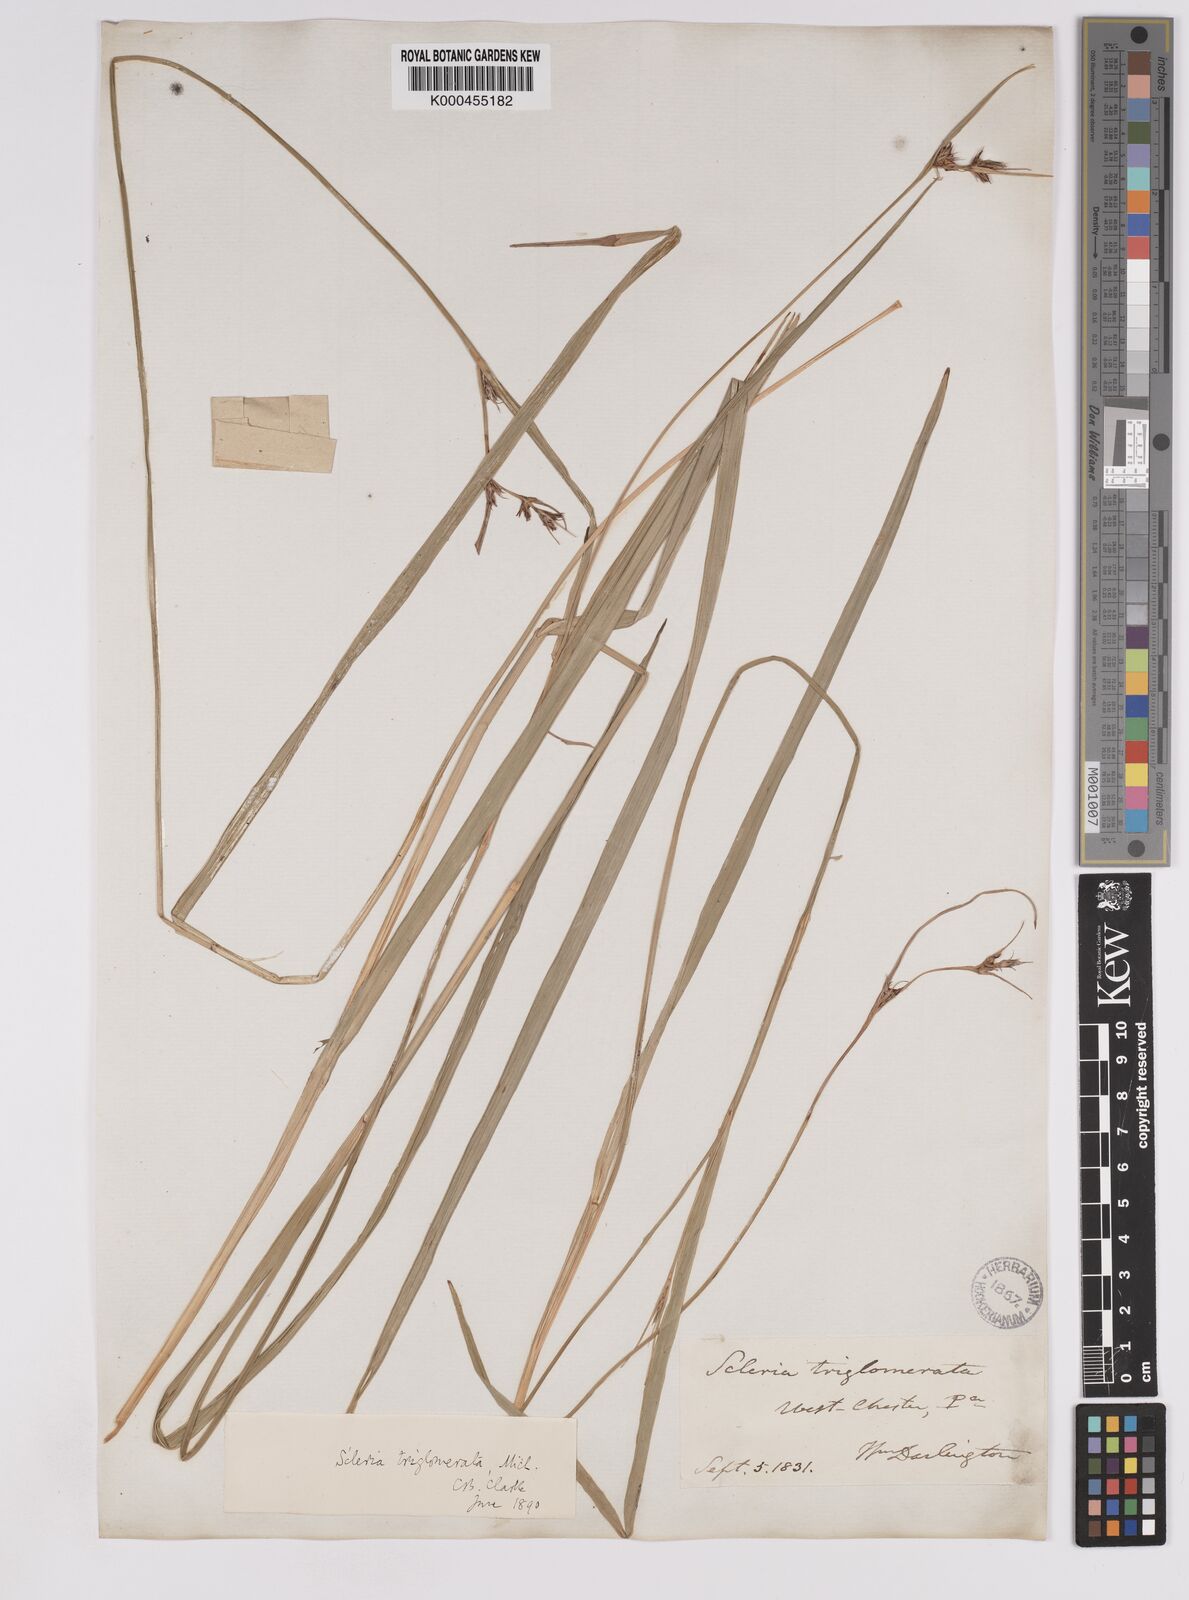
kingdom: Plantae
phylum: Tracheophyta
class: Liliopsida
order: Poales
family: Cyperaceae
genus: Scleria
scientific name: Scleria triglomerata
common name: Whip nutrush
